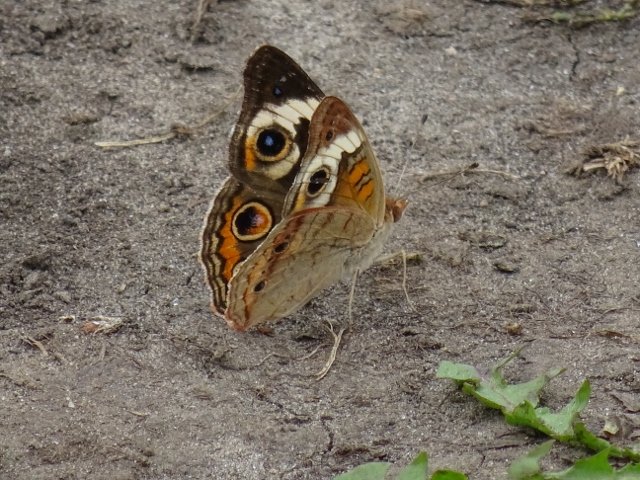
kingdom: Animalia
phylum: Arthropoda
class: Insecta
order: Lepidoptera
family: Nymphalidae
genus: Junonia
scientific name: Junonia coenia
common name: Common Buckeye
